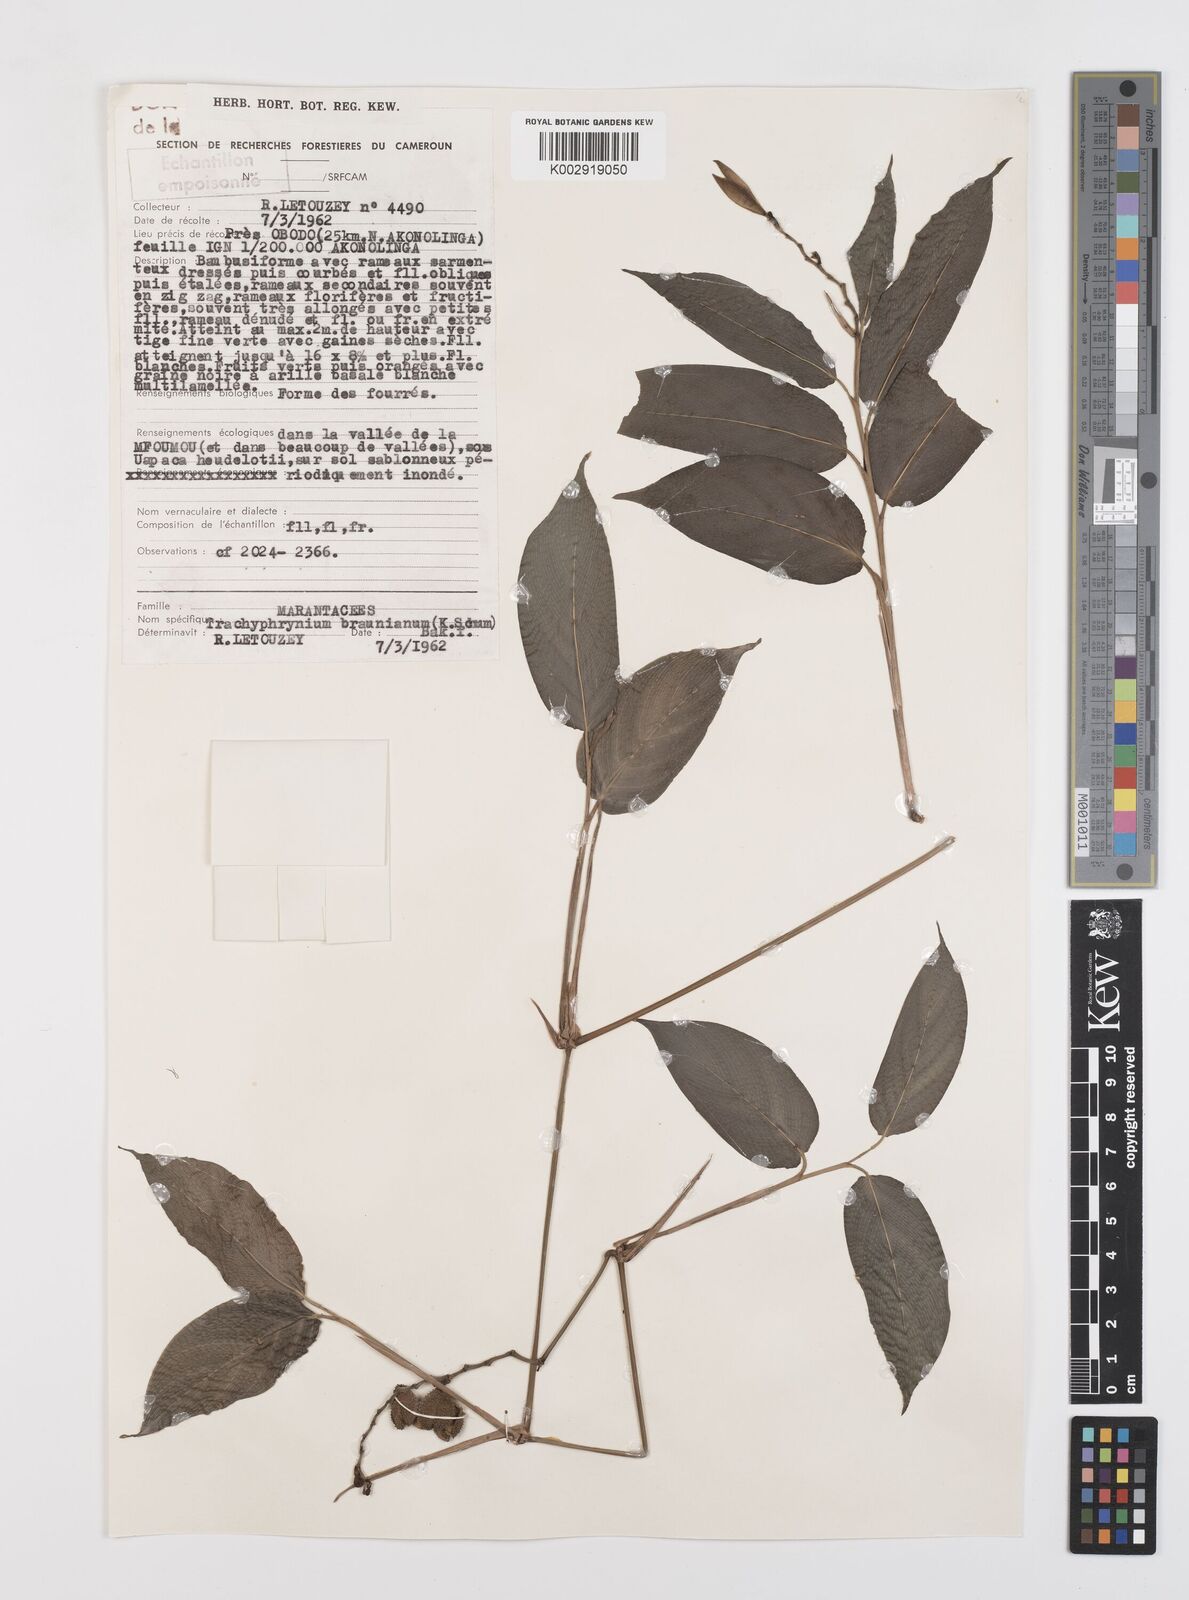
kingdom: Plantae
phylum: Tracheophyta
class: Liliopsida
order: Zingiberales
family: Marantaceae
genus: Trachyphrynium
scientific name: Trachyphrynium braunianum
